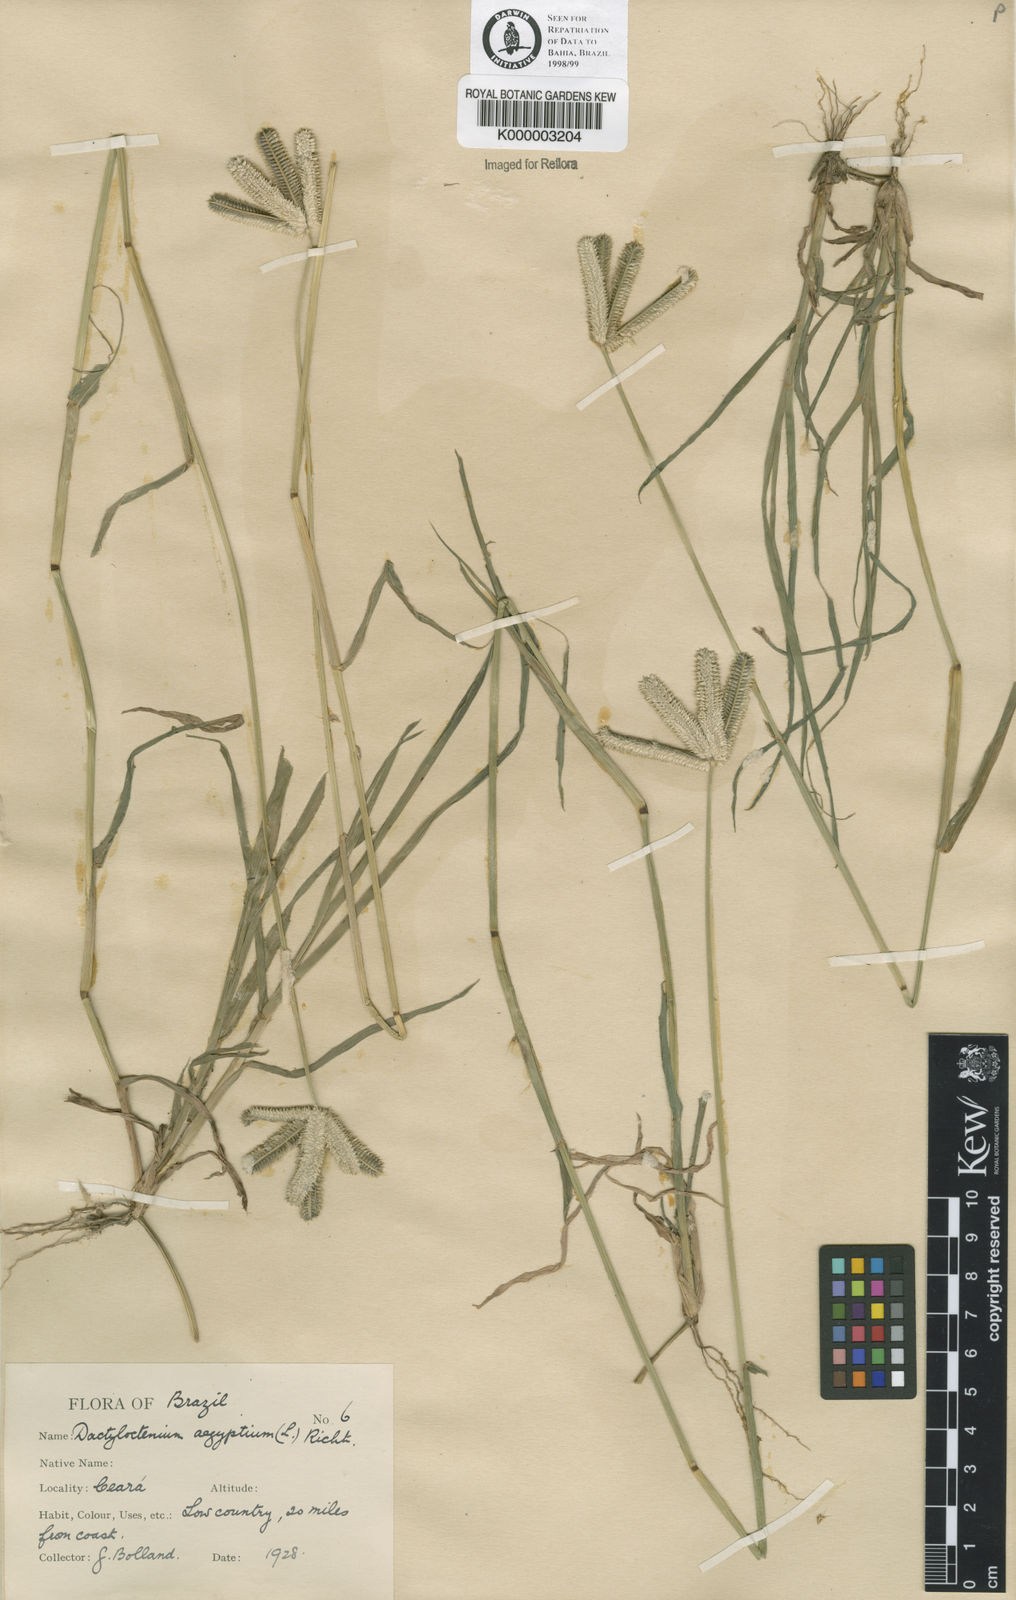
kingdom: Plantae
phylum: Tracheophyta
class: Liliopsida
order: Poales
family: Poaceae
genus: Dactyloctenium
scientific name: Dactyloctenium aegyptium
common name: Egyptian grass
